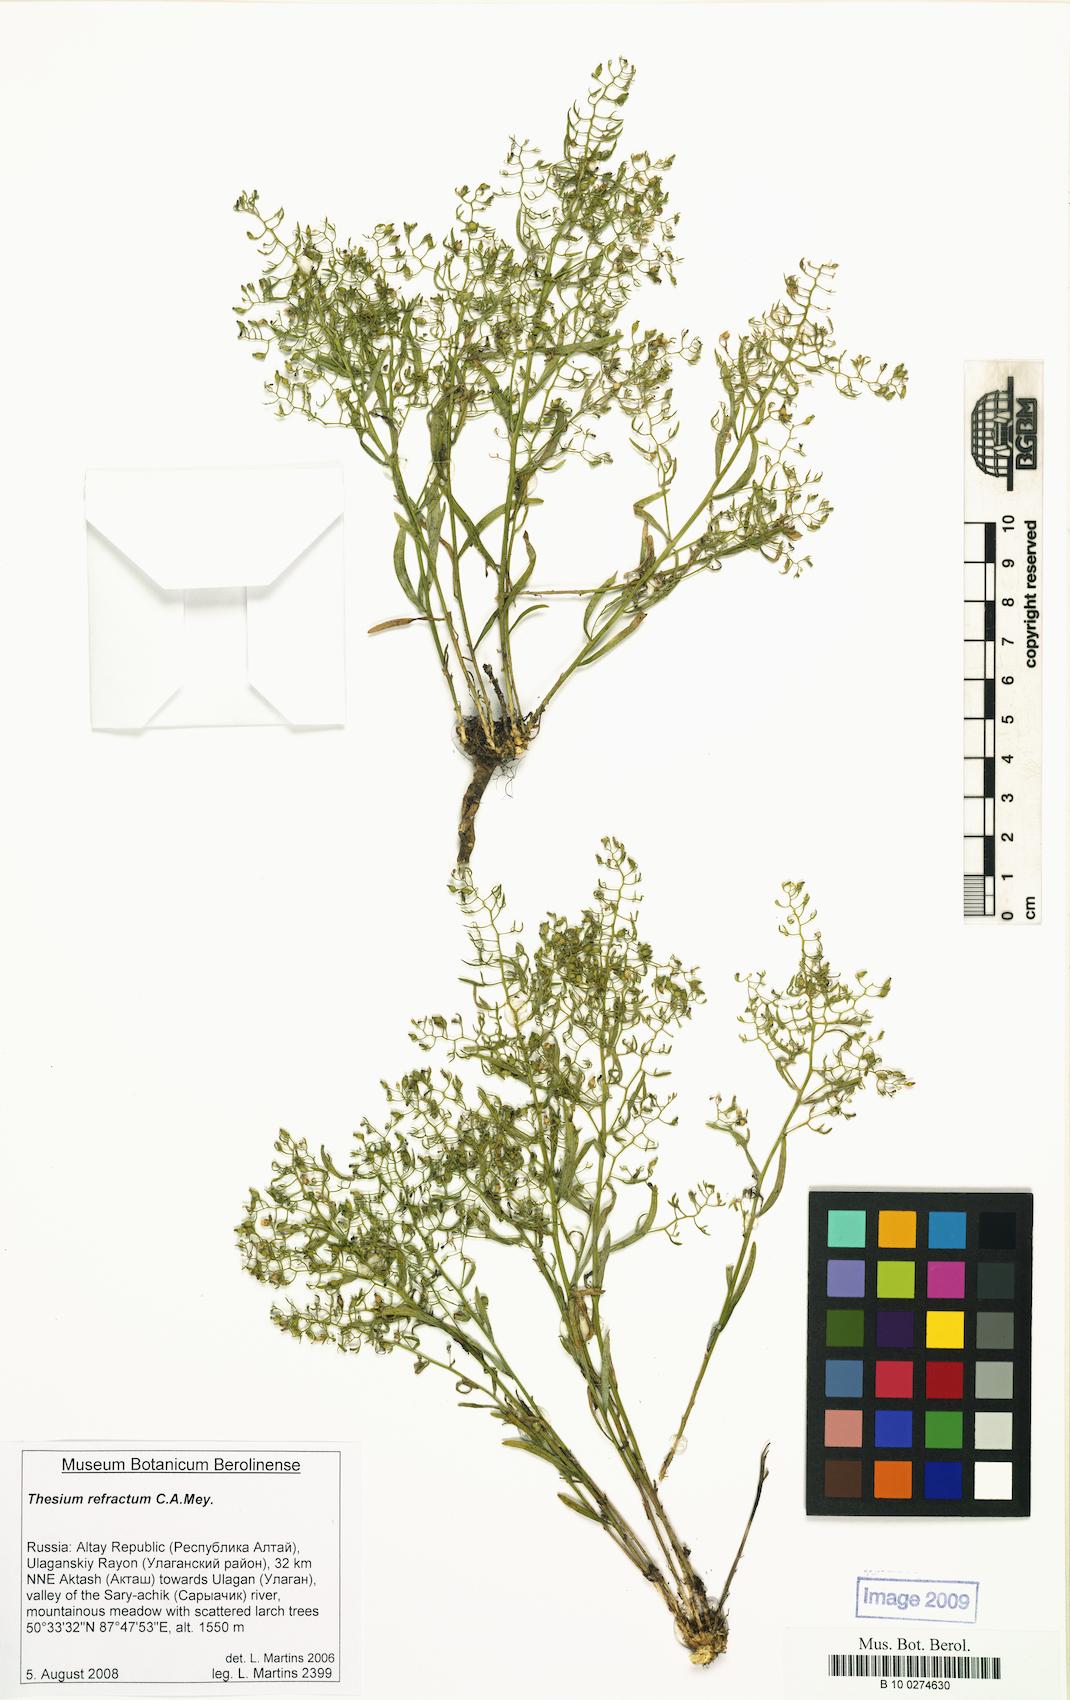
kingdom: Plantae
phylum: Tracheophyta
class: Magnoliopsida
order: Santalales
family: Thesiaceae
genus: Thesium
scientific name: Thesium refractum
